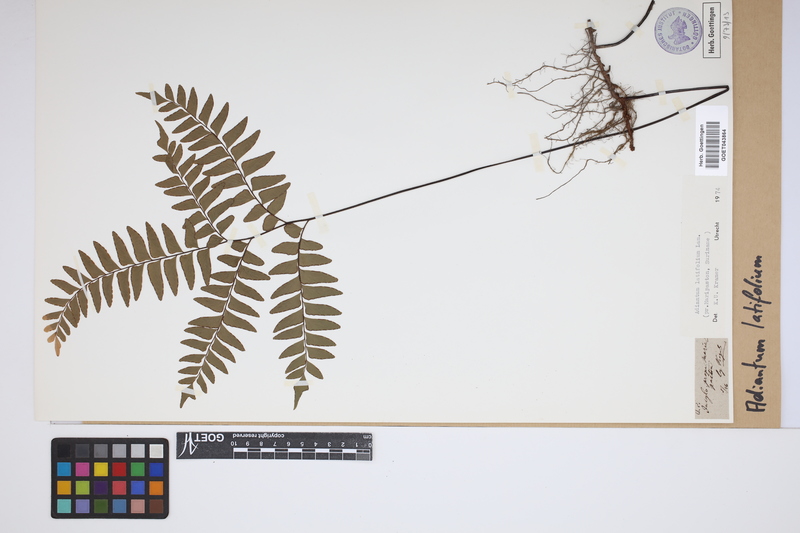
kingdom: Plantae
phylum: Tracheophyta
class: Polypodiopsida
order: Polypodiales
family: Pteridaceae
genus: Adiantum
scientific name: Adiantum latifolium
